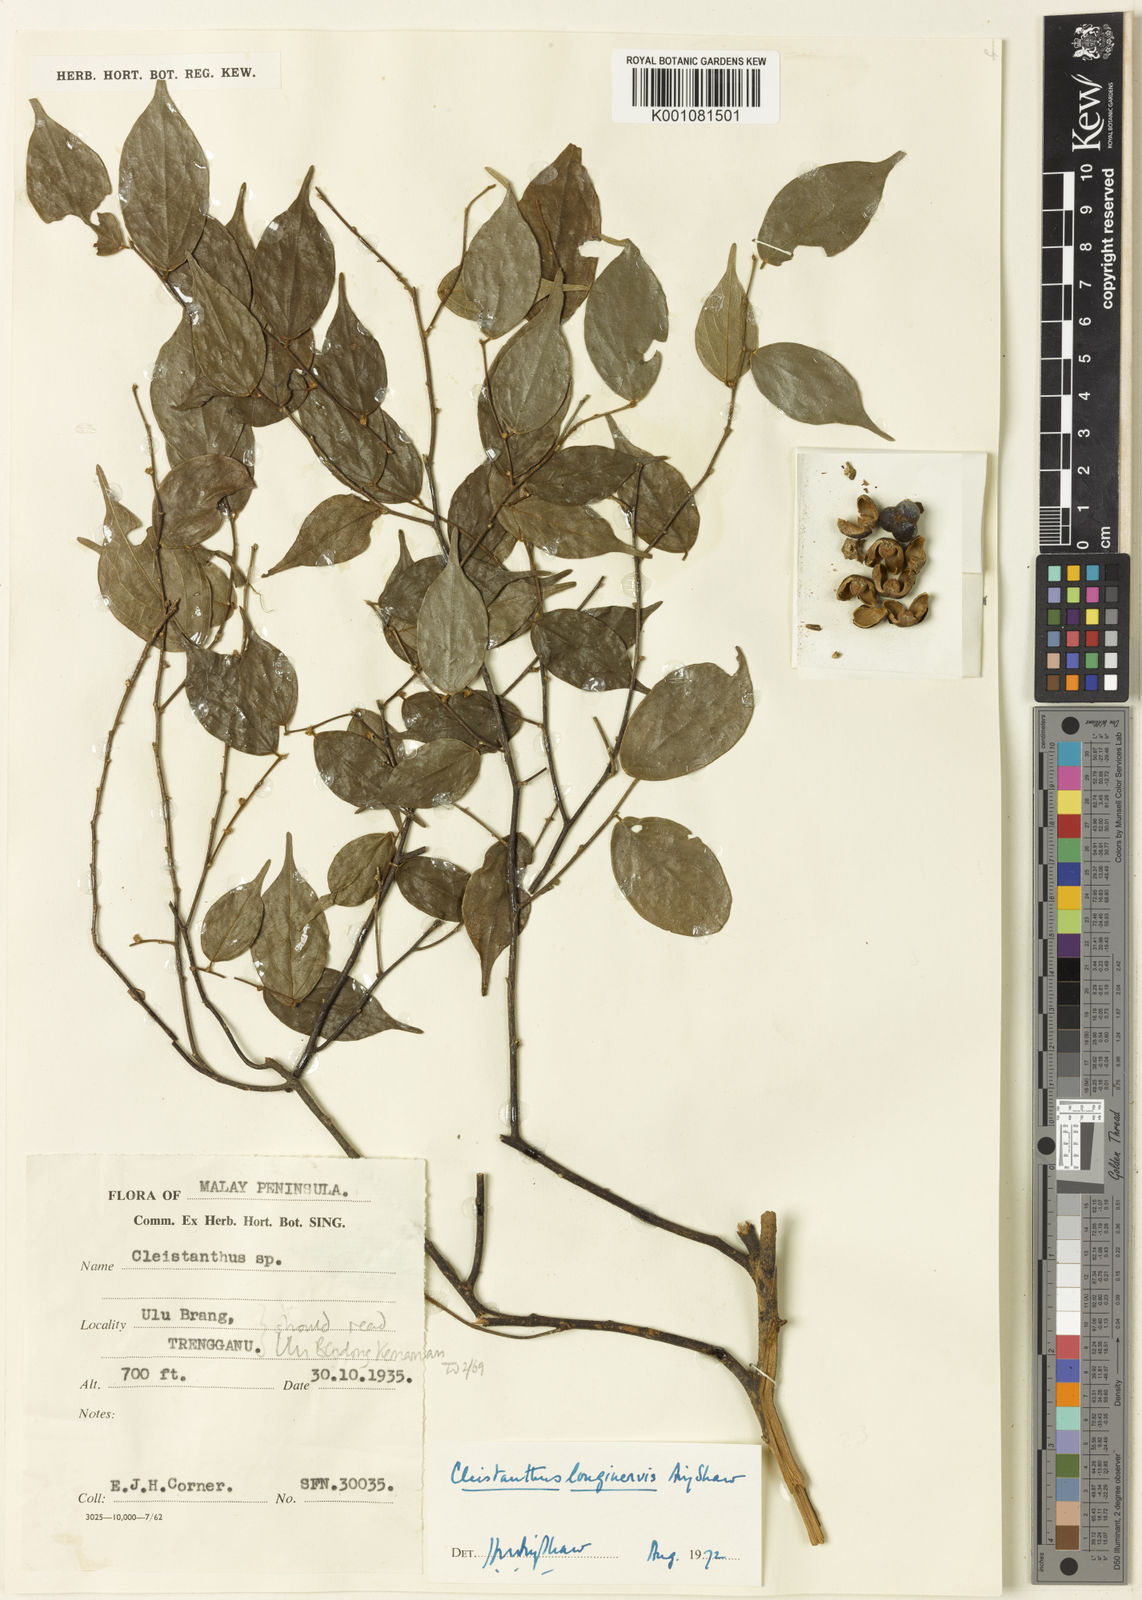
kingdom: Plantae
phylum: Tracheophyta
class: Magnoliopsida
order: Malpighiales
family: Phyllanthaceae
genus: Cleistanthus
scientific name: Cleistanthus longinervis
